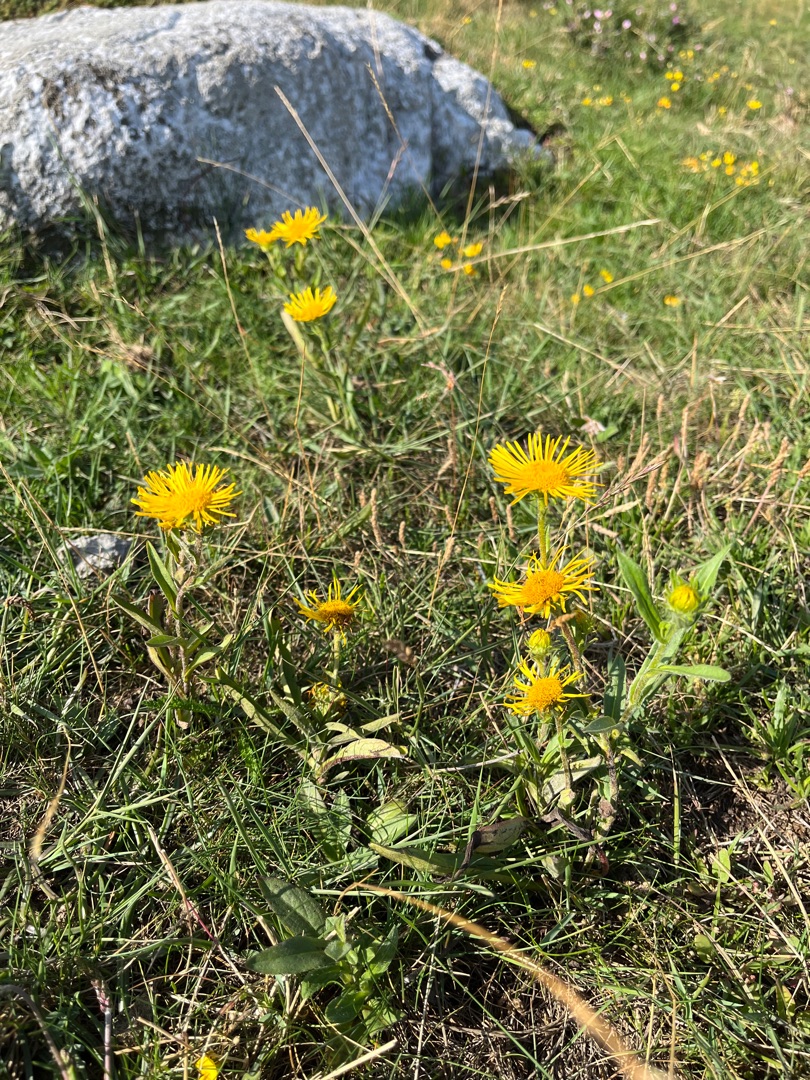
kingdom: Plantae
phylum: Tracheophyta
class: Magnoliopsida
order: Asterales
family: Asteraceae
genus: Pentanema
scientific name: Pentanema britannicum
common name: Soløje-alant
